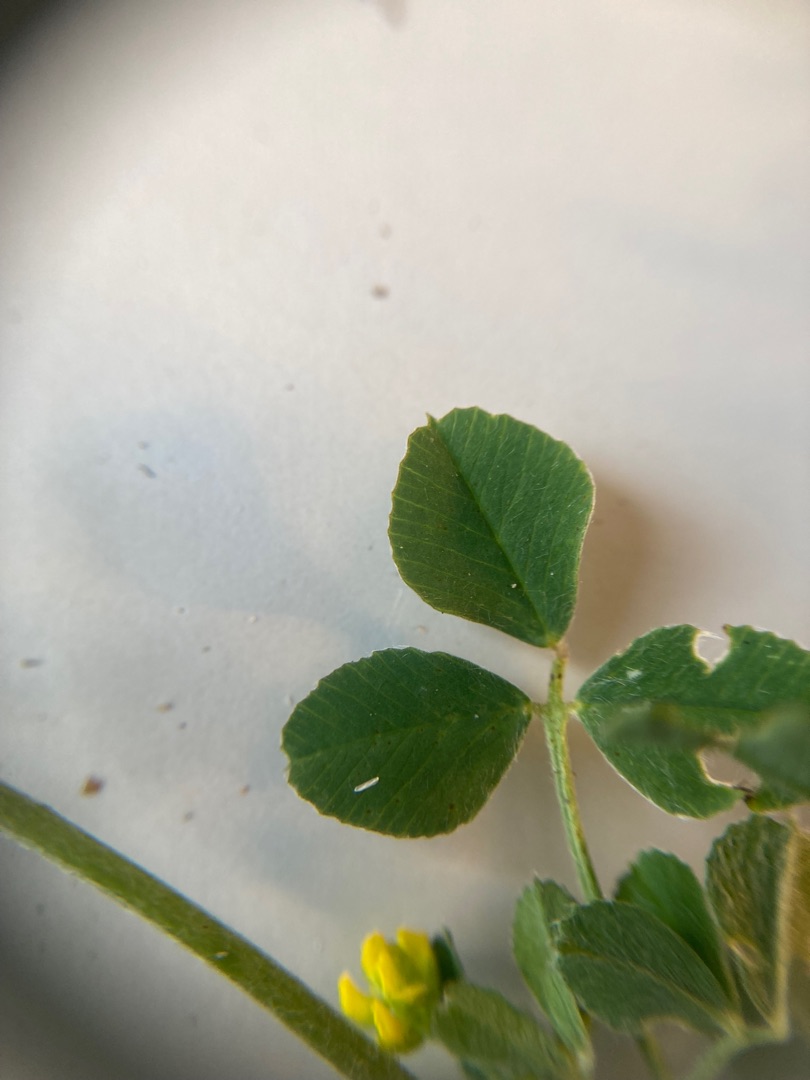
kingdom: Plantae
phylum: Tracheophyta
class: Magnoliopsida
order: Fabales
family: Fabaceae
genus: Medicago
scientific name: Medicago lupulina
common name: Humle-sneglebælg
